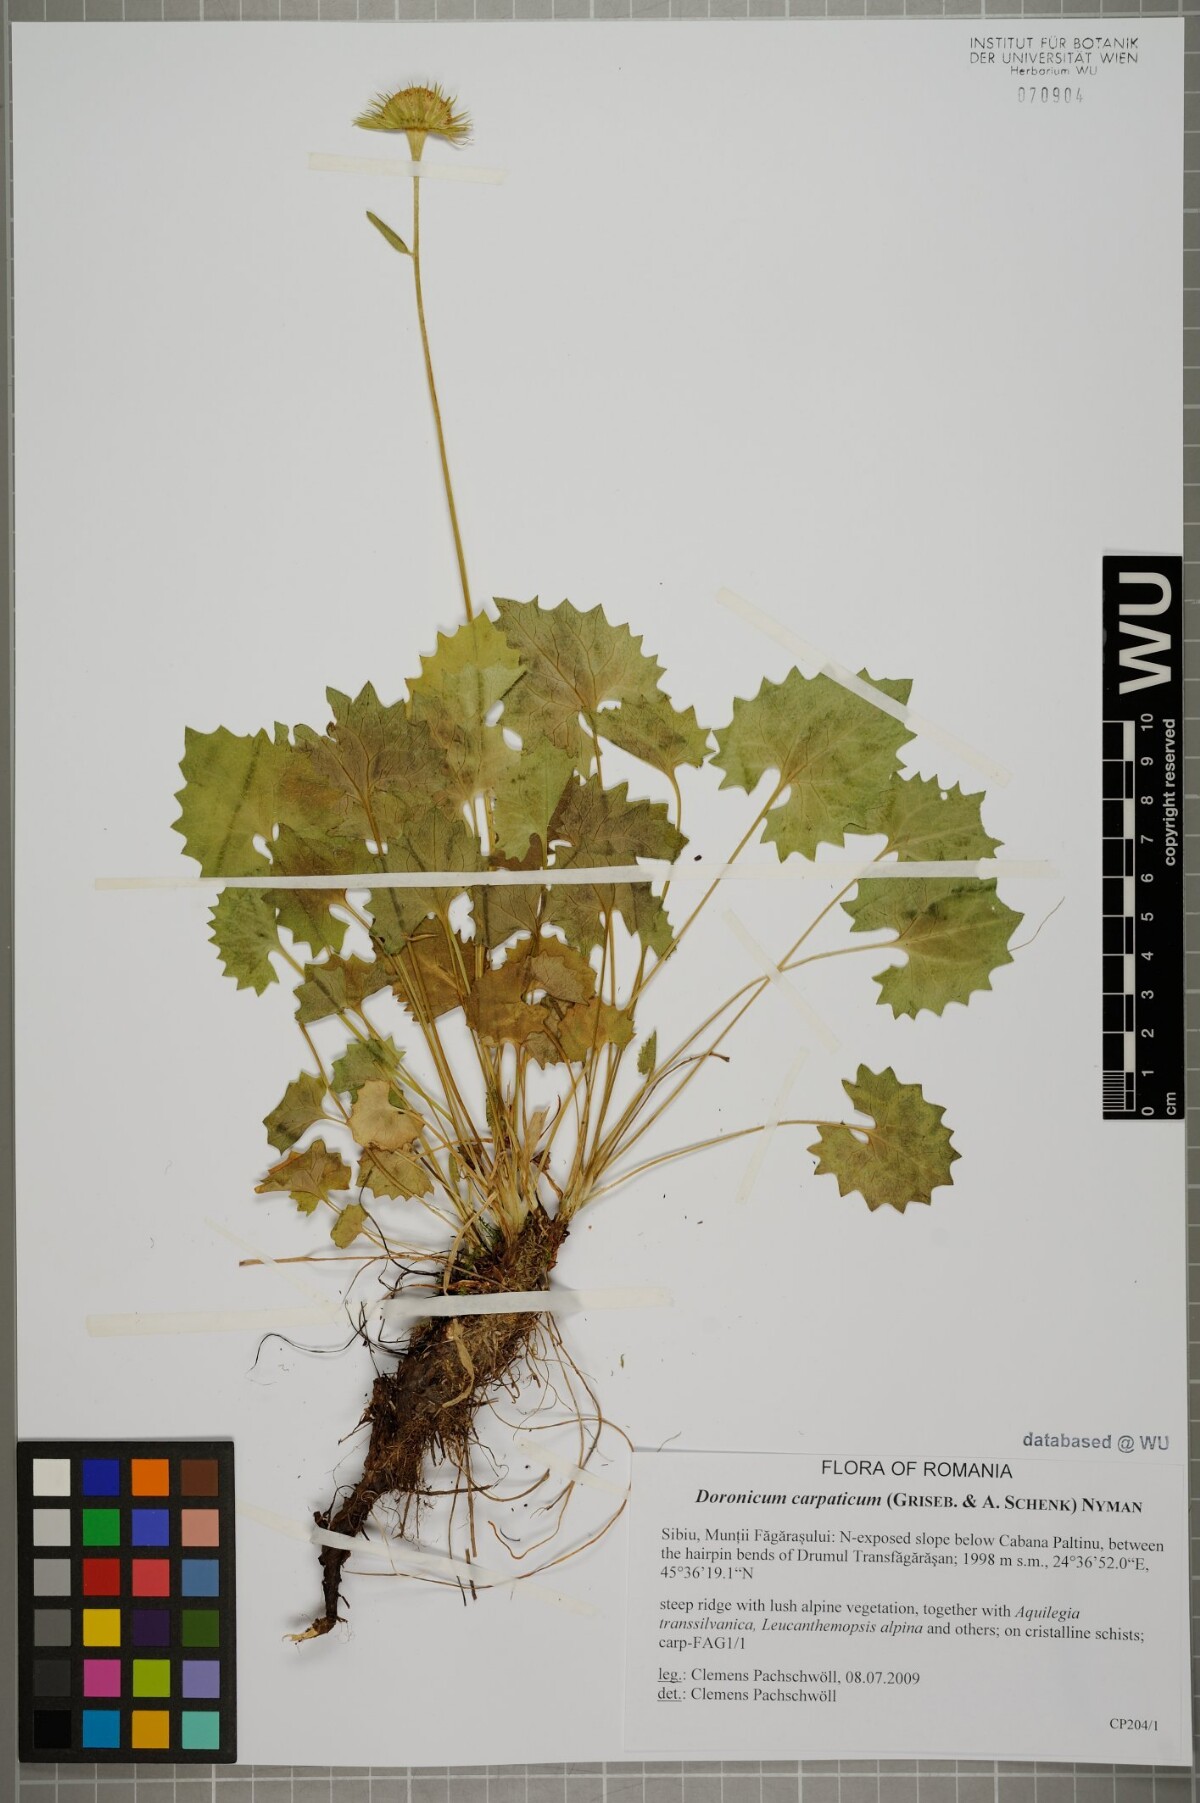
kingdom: Plantae
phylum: Tracheophyta
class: Magnoliopsida
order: Asterales
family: Asteraceae
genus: Doronicum
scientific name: Doronicum carpaticum
